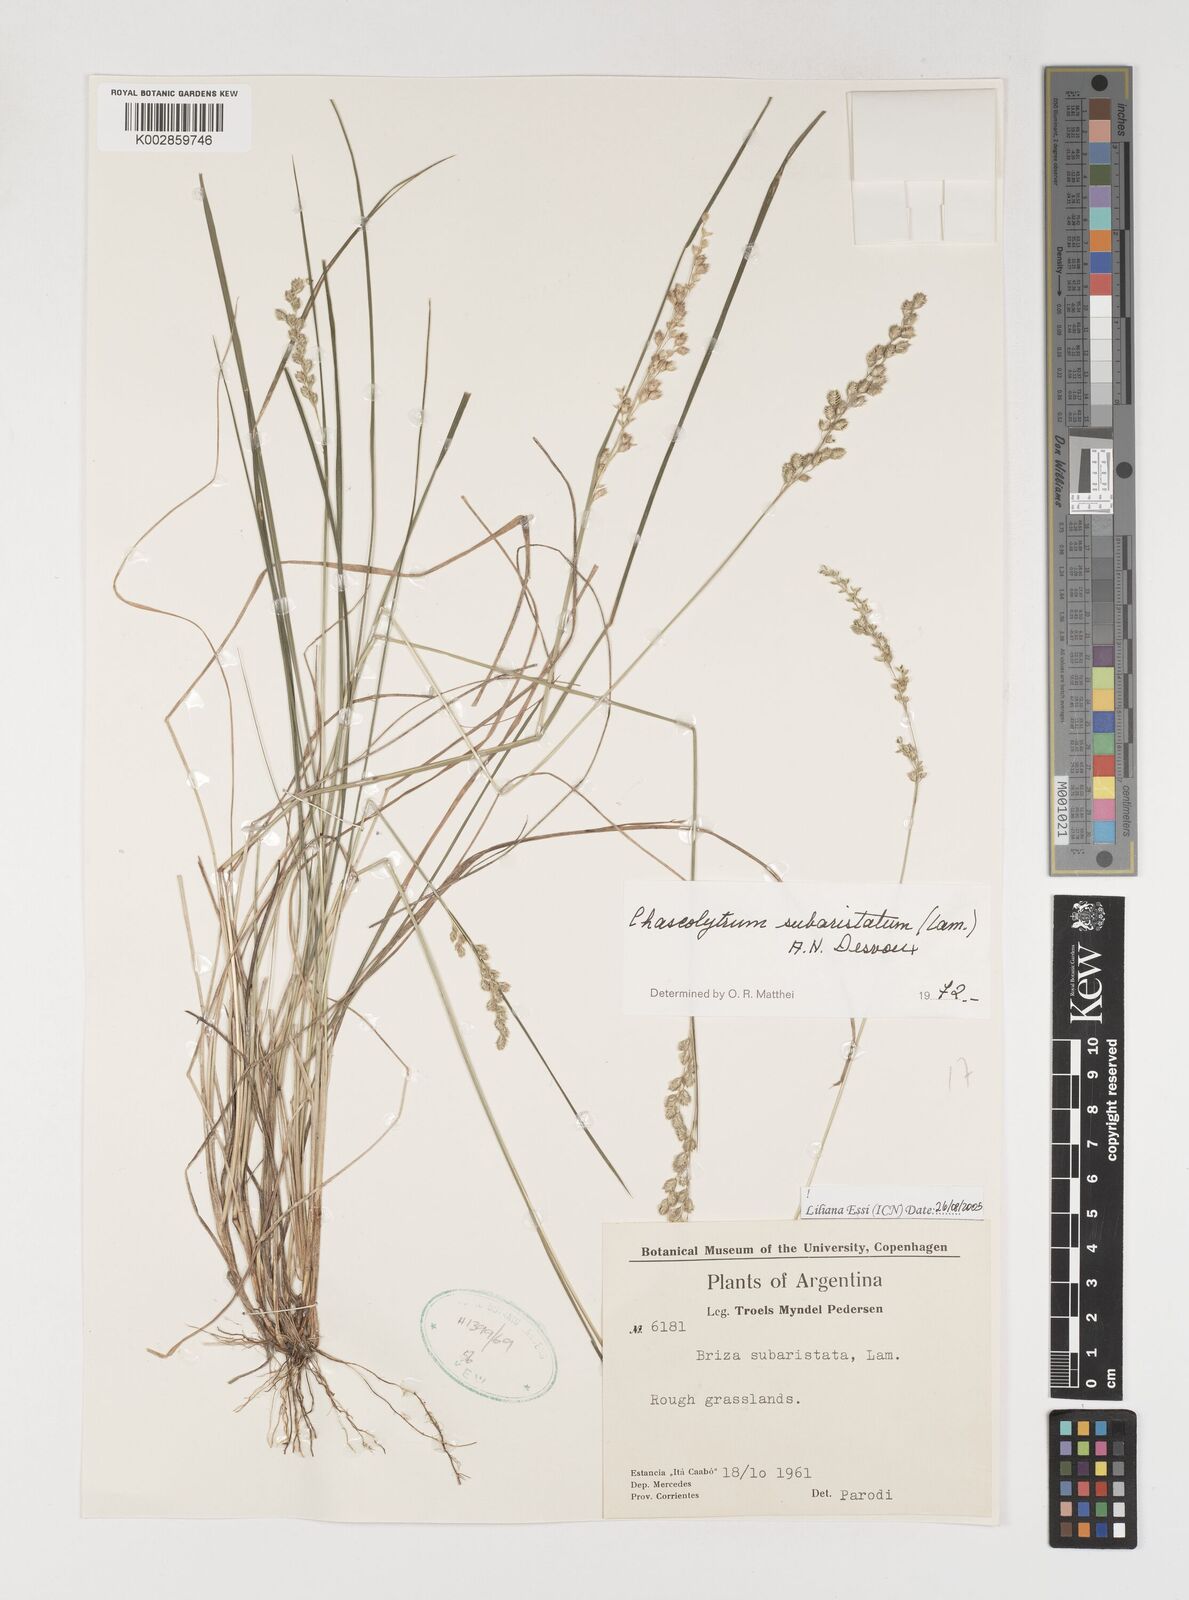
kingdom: Plantae
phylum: Tracheophyta
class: Liliopsida
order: Poales
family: Poaceae
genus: Chascolytrum
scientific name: Chascolytrum subaristatum
